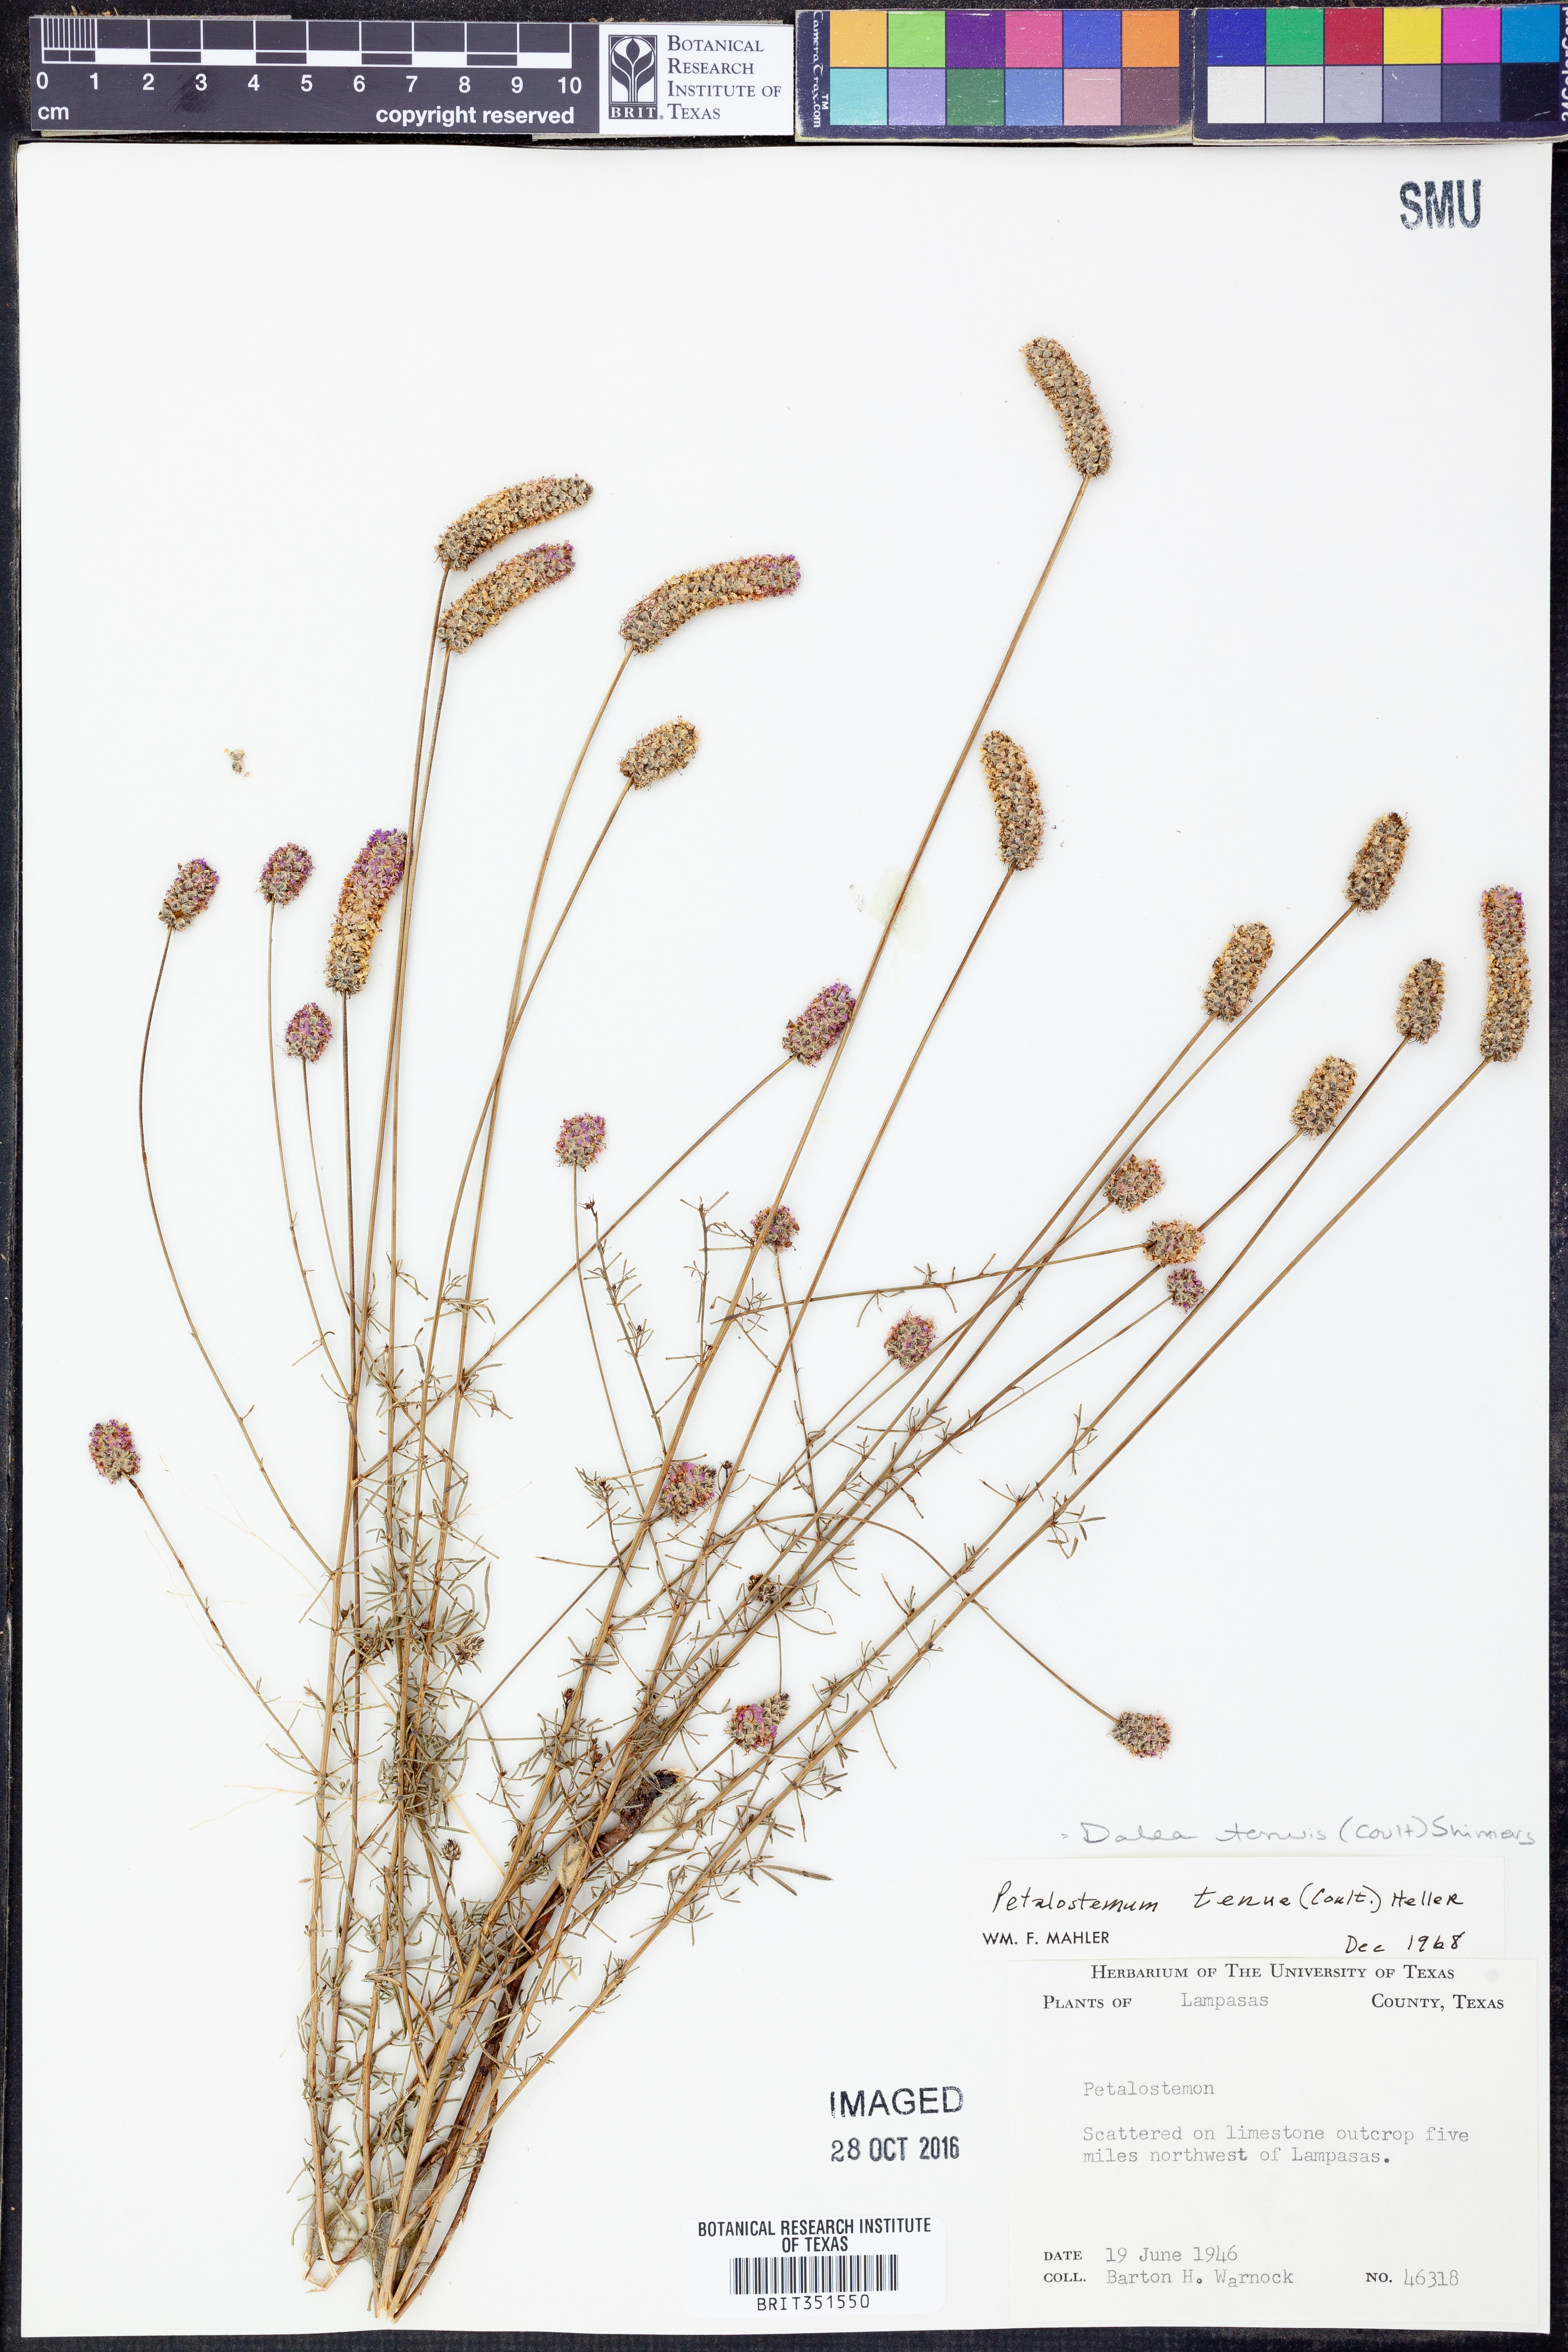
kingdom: Plantae
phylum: Tracheophyta
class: Magnoliopsida
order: Fabales
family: Fabaceae
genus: Dalea
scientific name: Dalea tenuis
